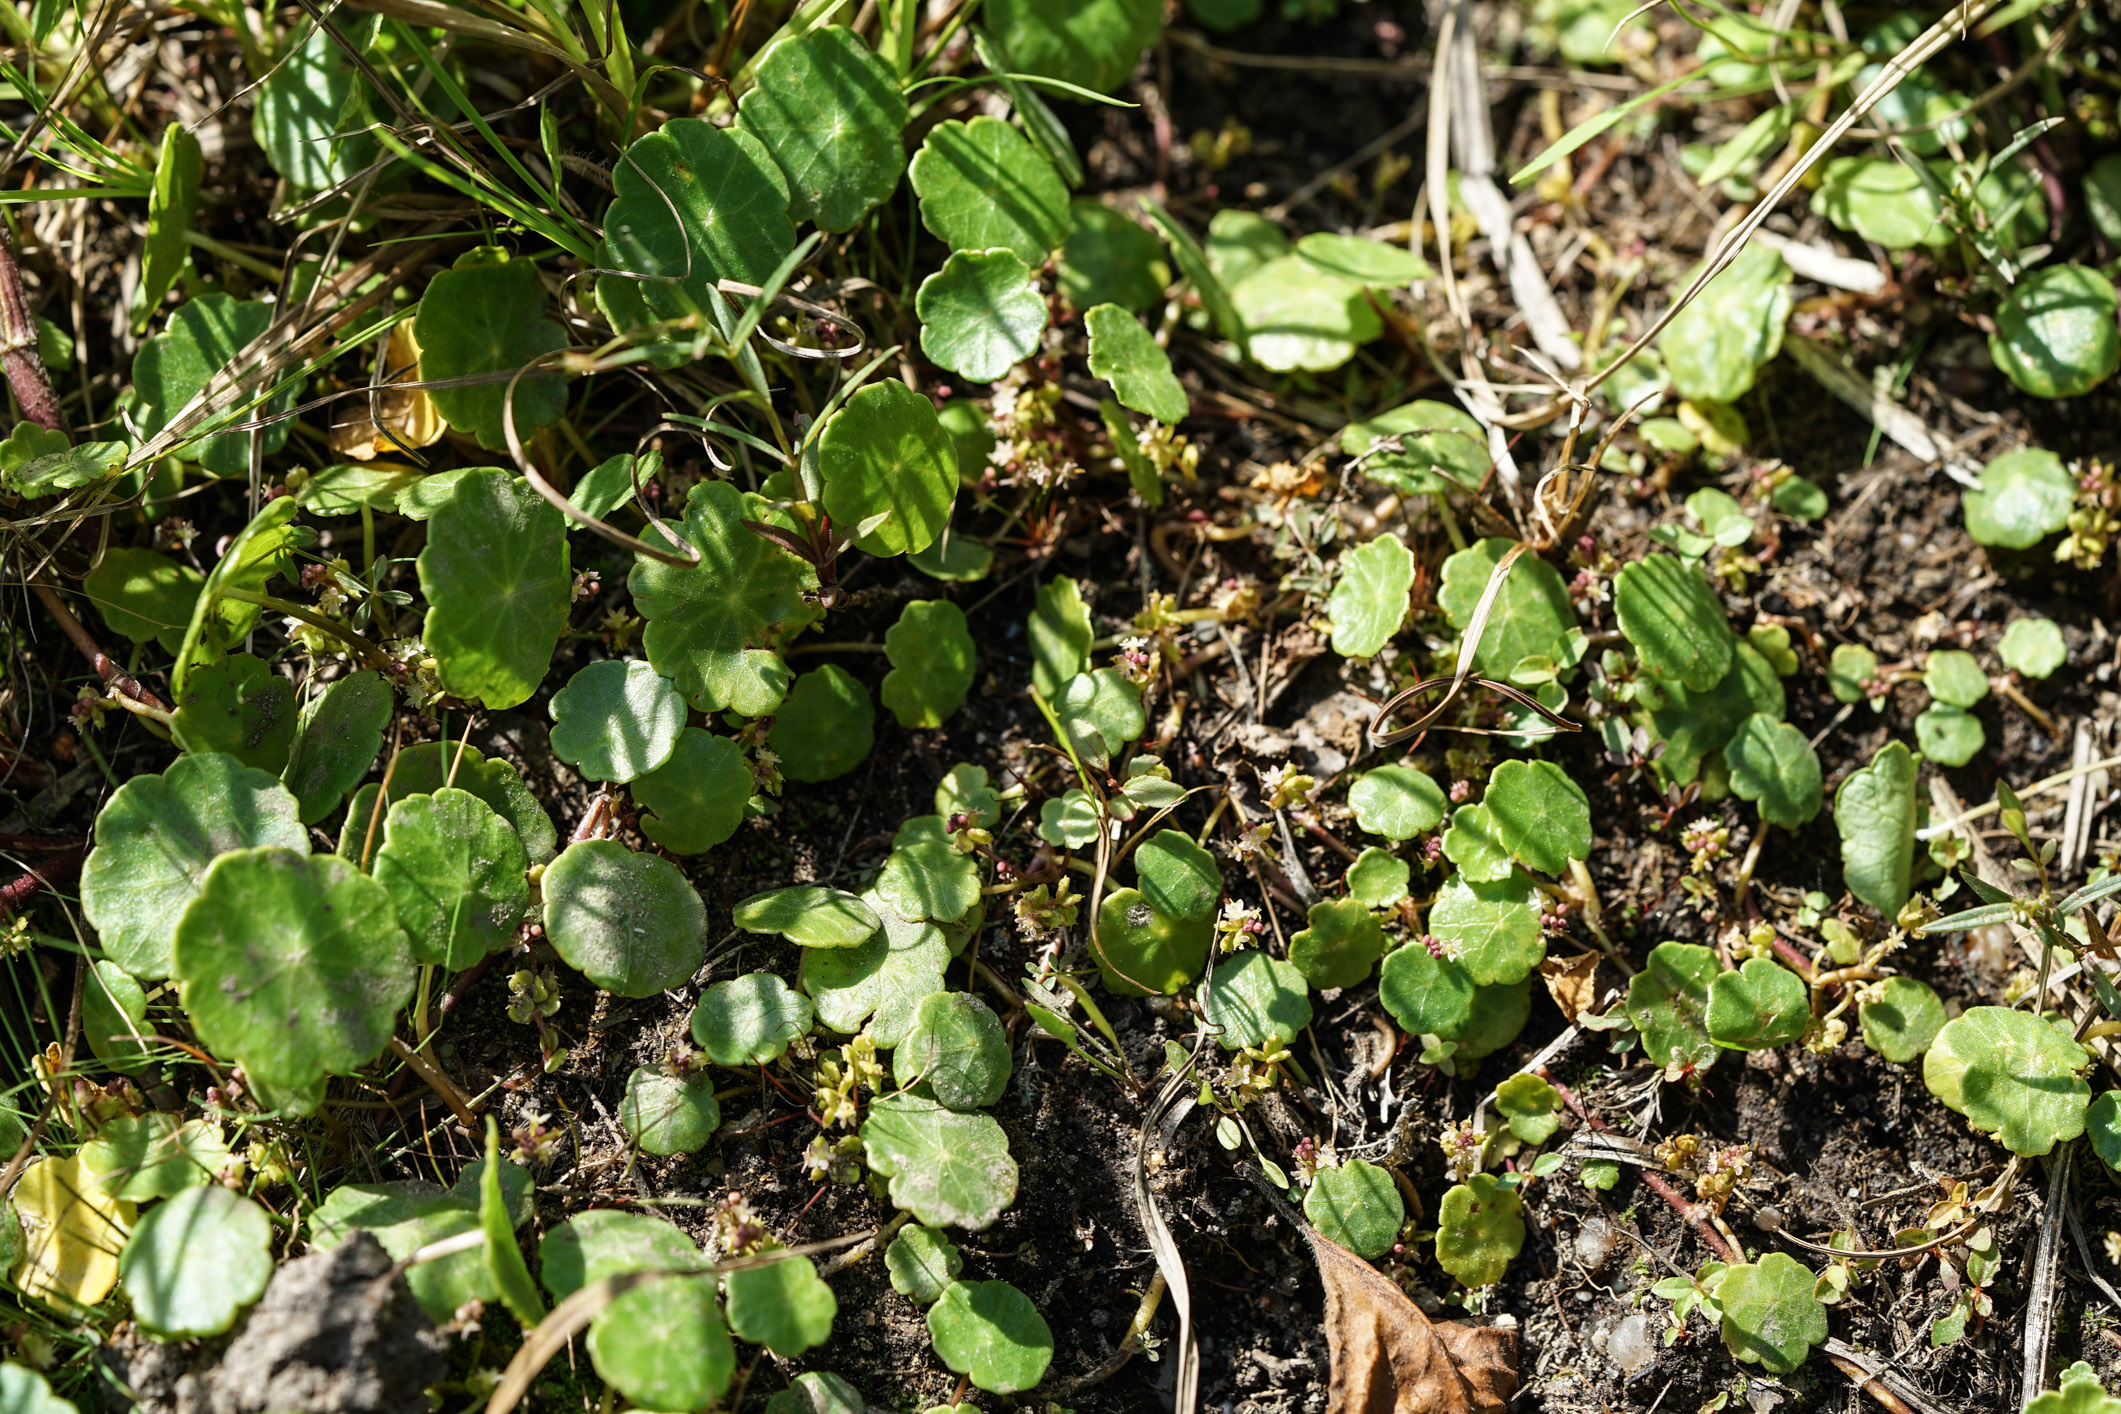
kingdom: Plantae
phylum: Tracheophyta
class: Magnoliopsida
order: Apiales
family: Araliaceae
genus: Hydrocotyle
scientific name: Hydrocotyle vulgaris
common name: Marsh pennywort
